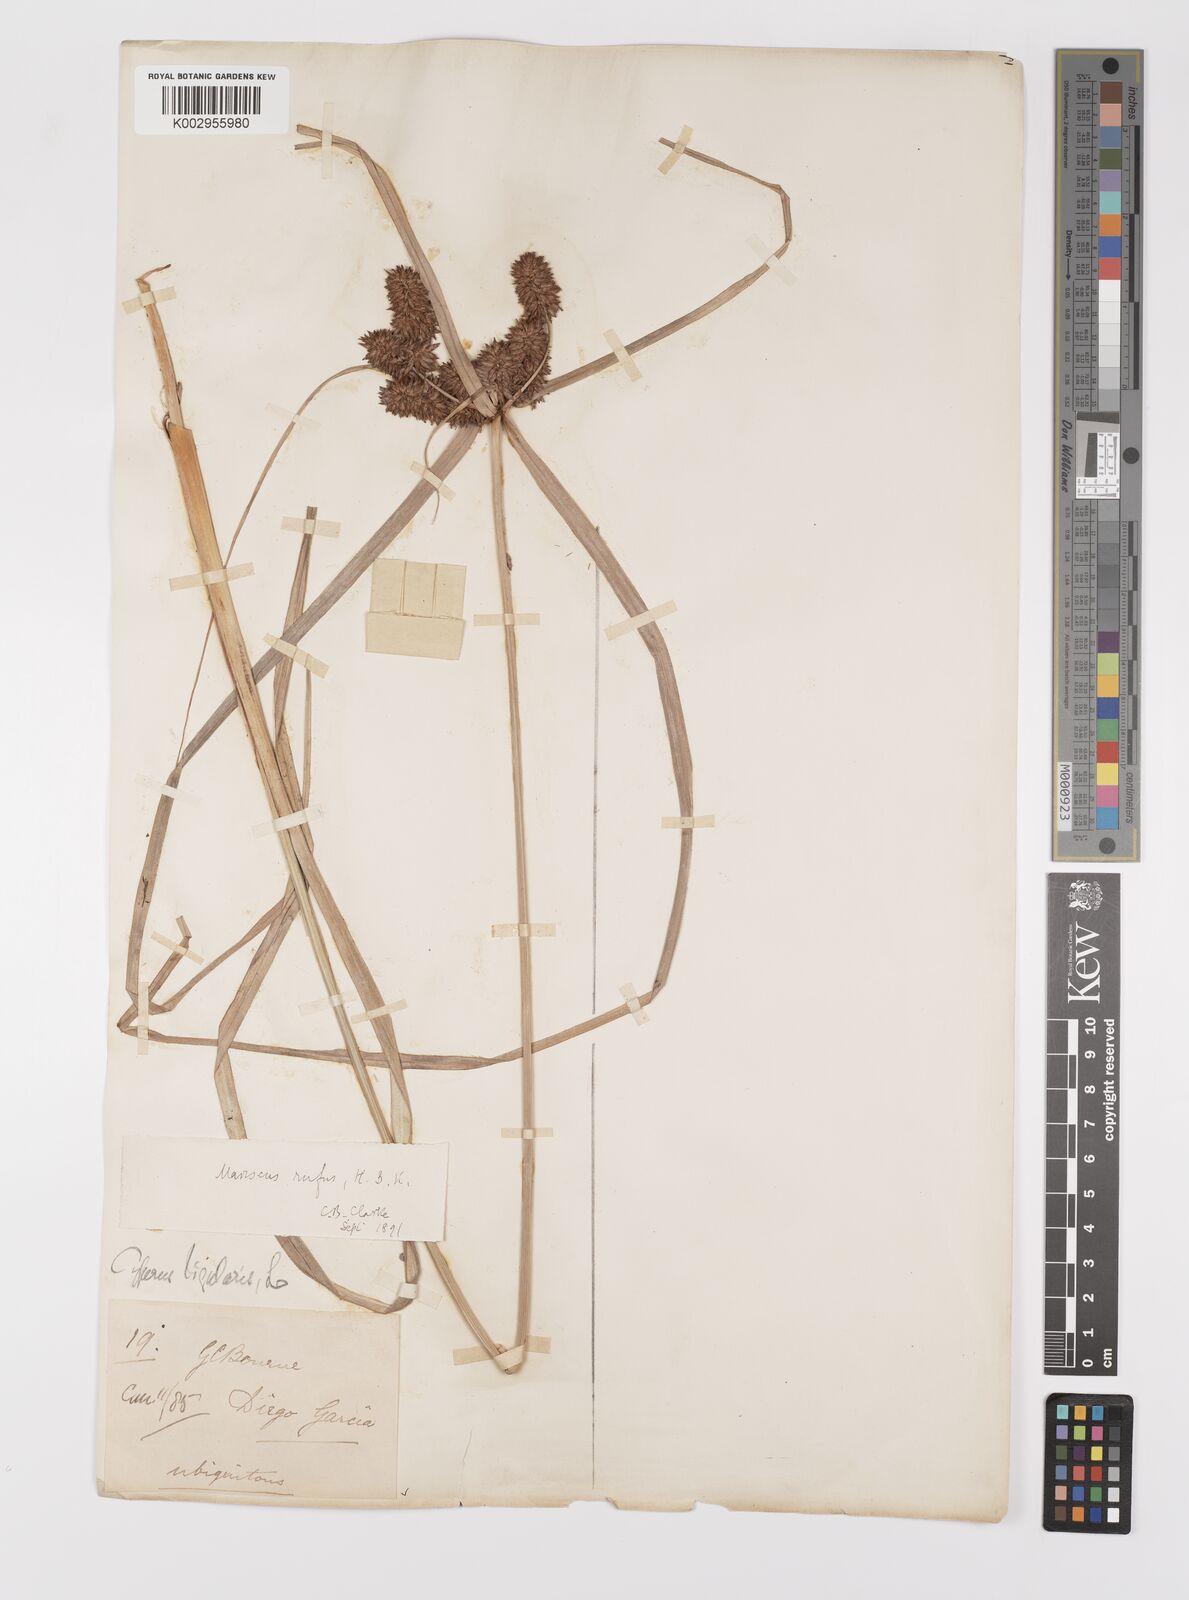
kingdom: Plantae
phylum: Tracheophyta
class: Liliopsida
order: Poales
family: Cyperaceae
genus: Cyperus
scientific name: Cyperus ligularis
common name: Swamp flat sedge
